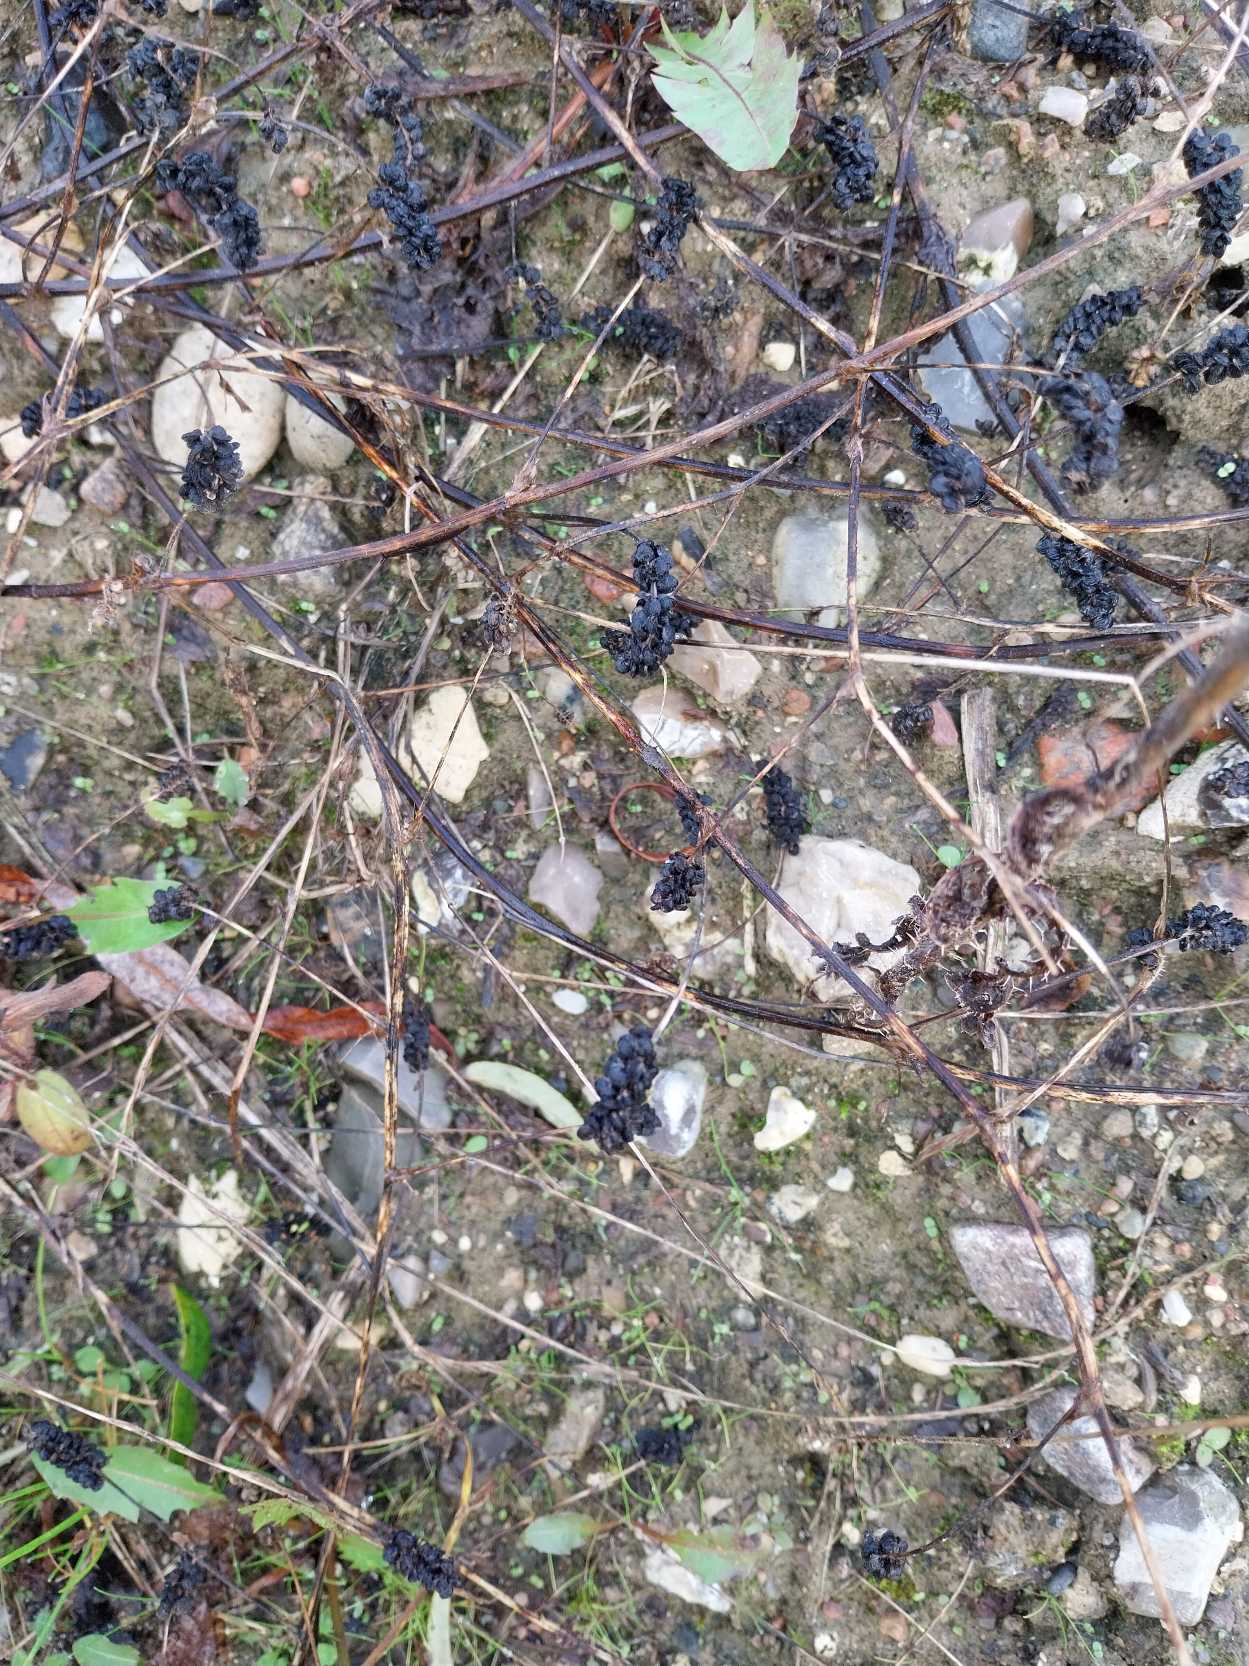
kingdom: Plantae
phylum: Tracheophyta
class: Magnoliopsida
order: Fabales
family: Fabaceae
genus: Medicago
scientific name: Medicago lupulina
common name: Humle-sneglebælg
